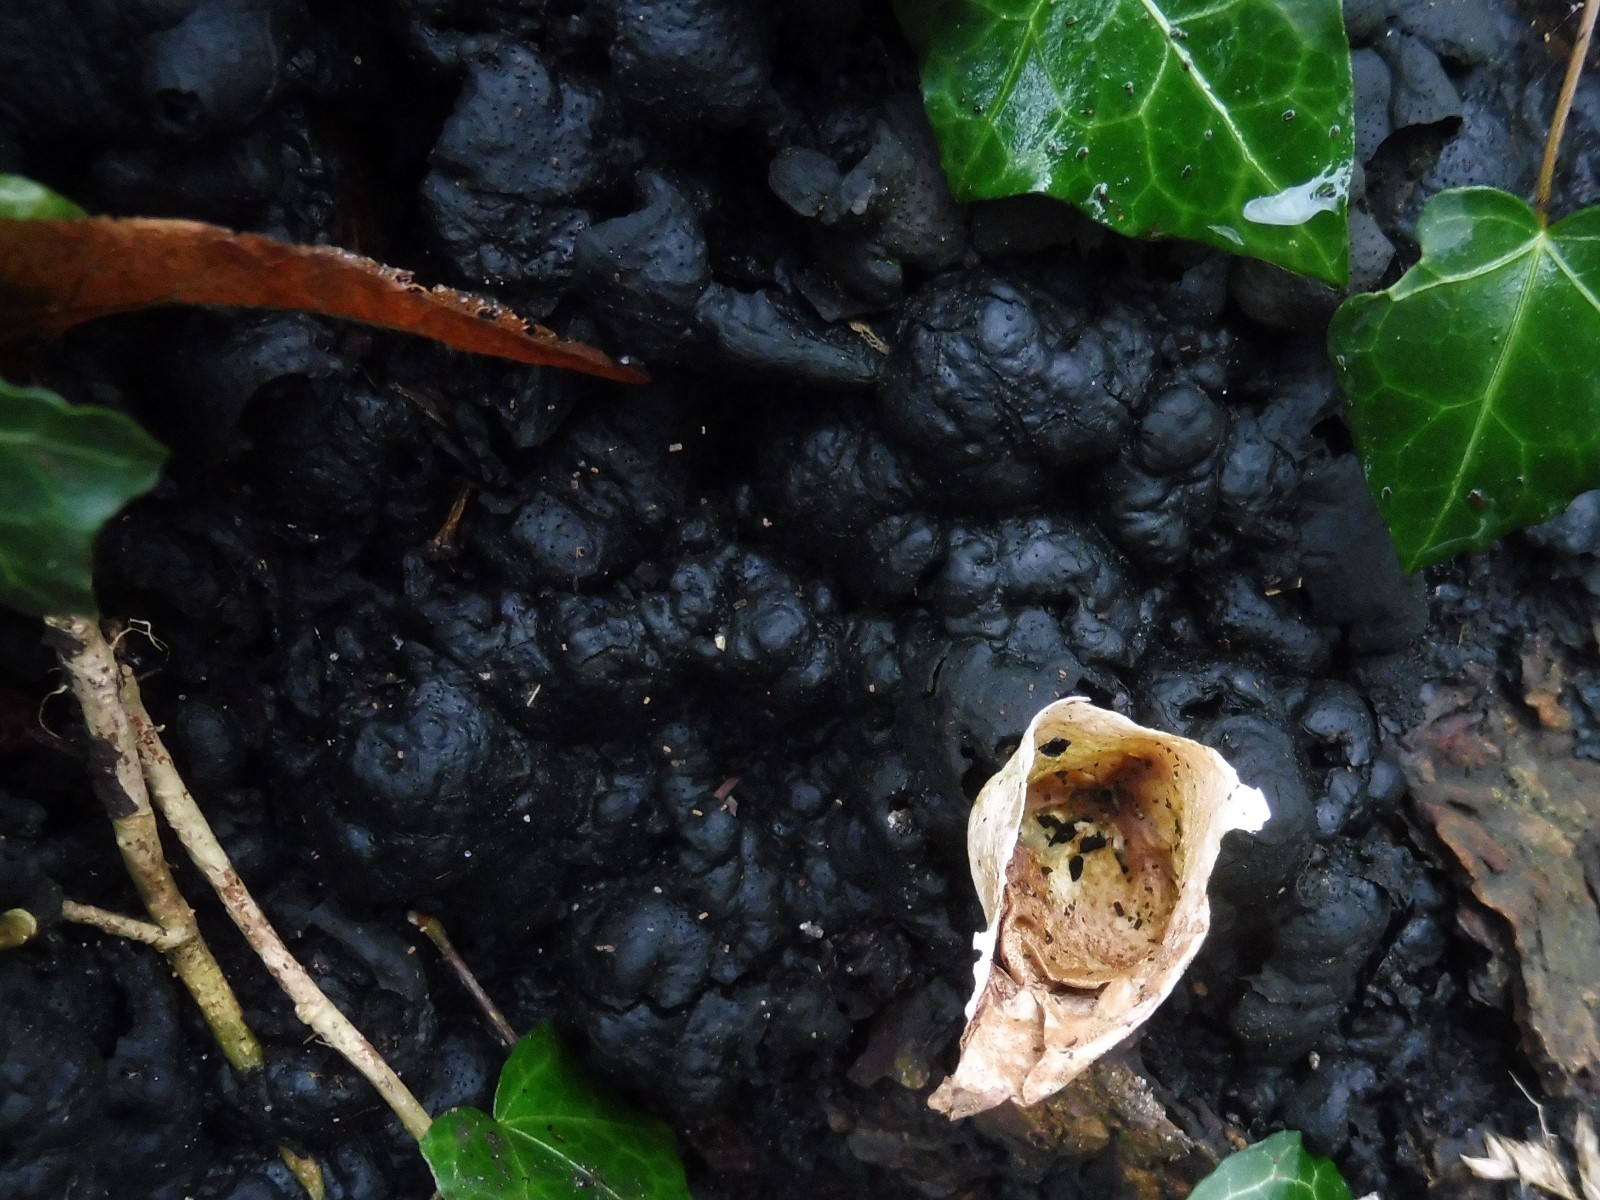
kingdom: Fungi
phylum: Ascomycota
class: Sordariomycetes
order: Xylariales
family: Xylariaceae
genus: Kretzschmaria
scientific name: Kretzschmaria deusta
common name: stor kulsvamp
